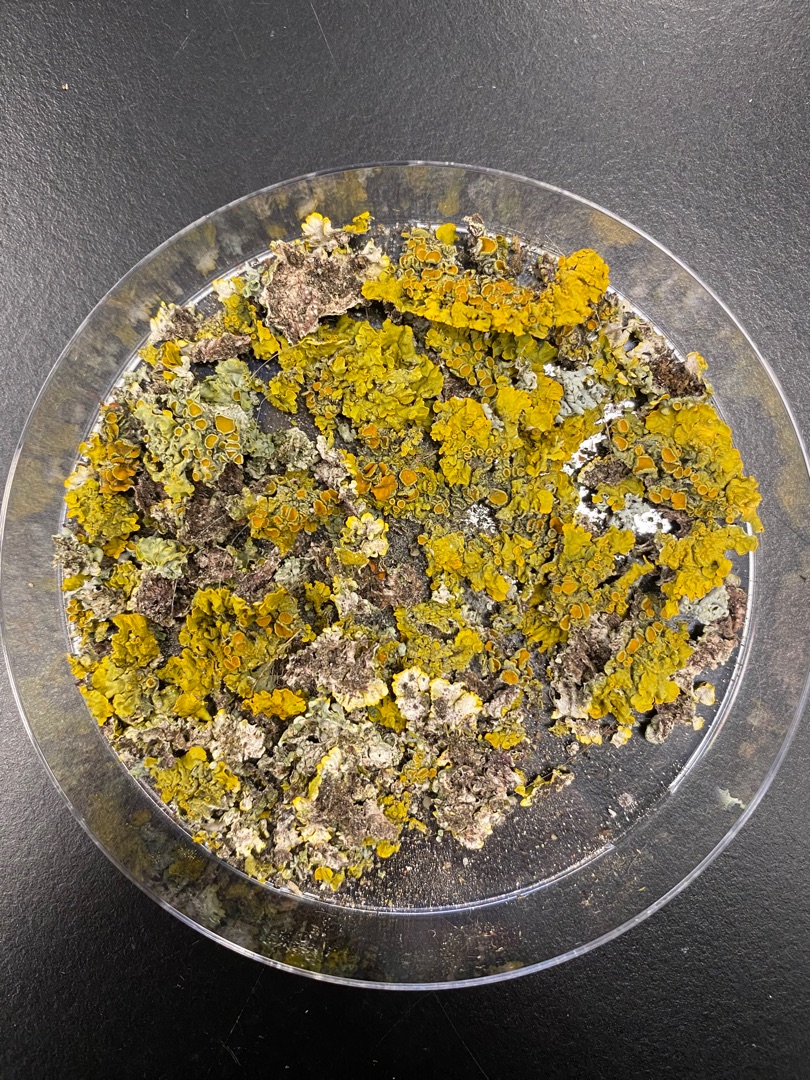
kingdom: Fungi
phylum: Ascomycota
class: Lecanoromycetes
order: Teloschistales
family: Teloschistaceae
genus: Xanthoria
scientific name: Xanthoria parietina
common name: Almindelig væggelav
